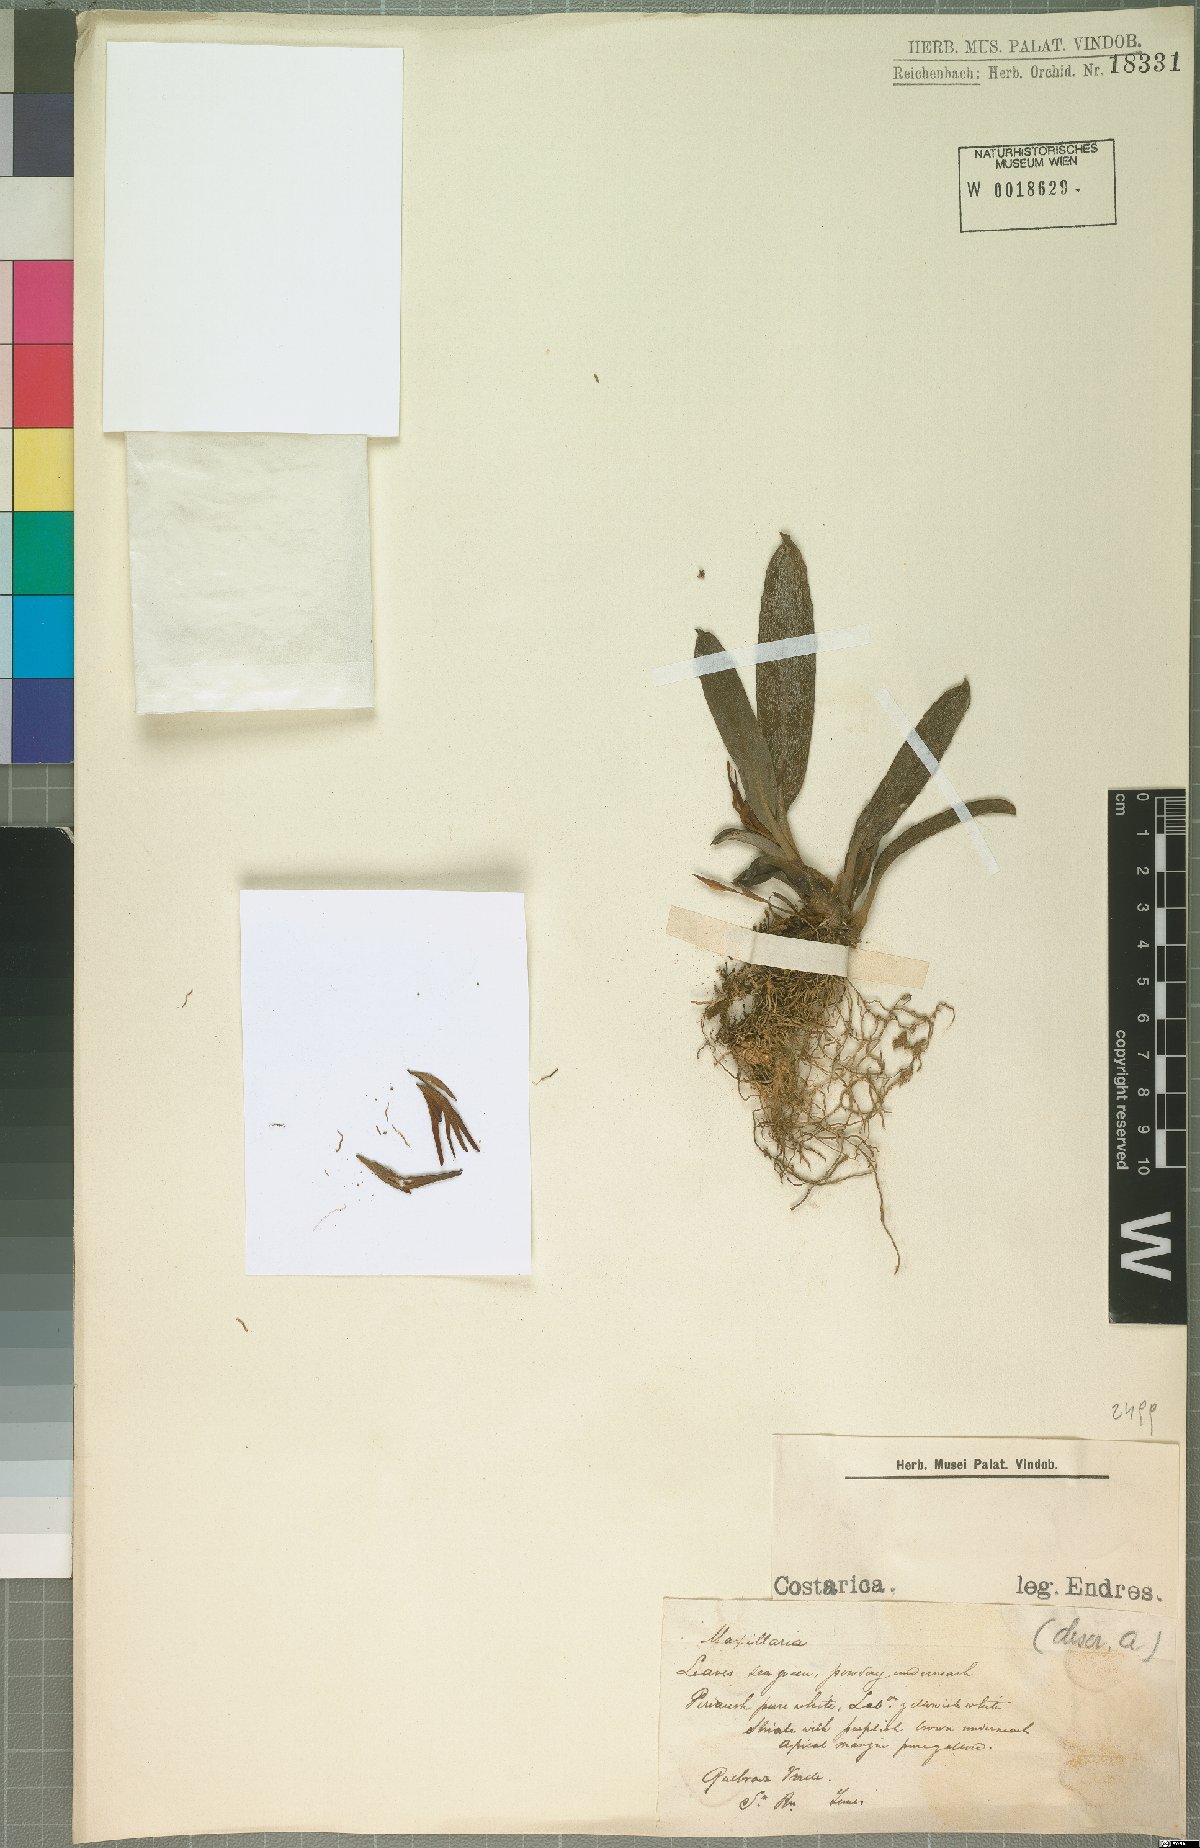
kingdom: Plantae
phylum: Tracheophyta
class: Liliopsida
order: Asparagales
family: Orchidaceae
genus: Maxillaria
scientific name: Maxillaria
